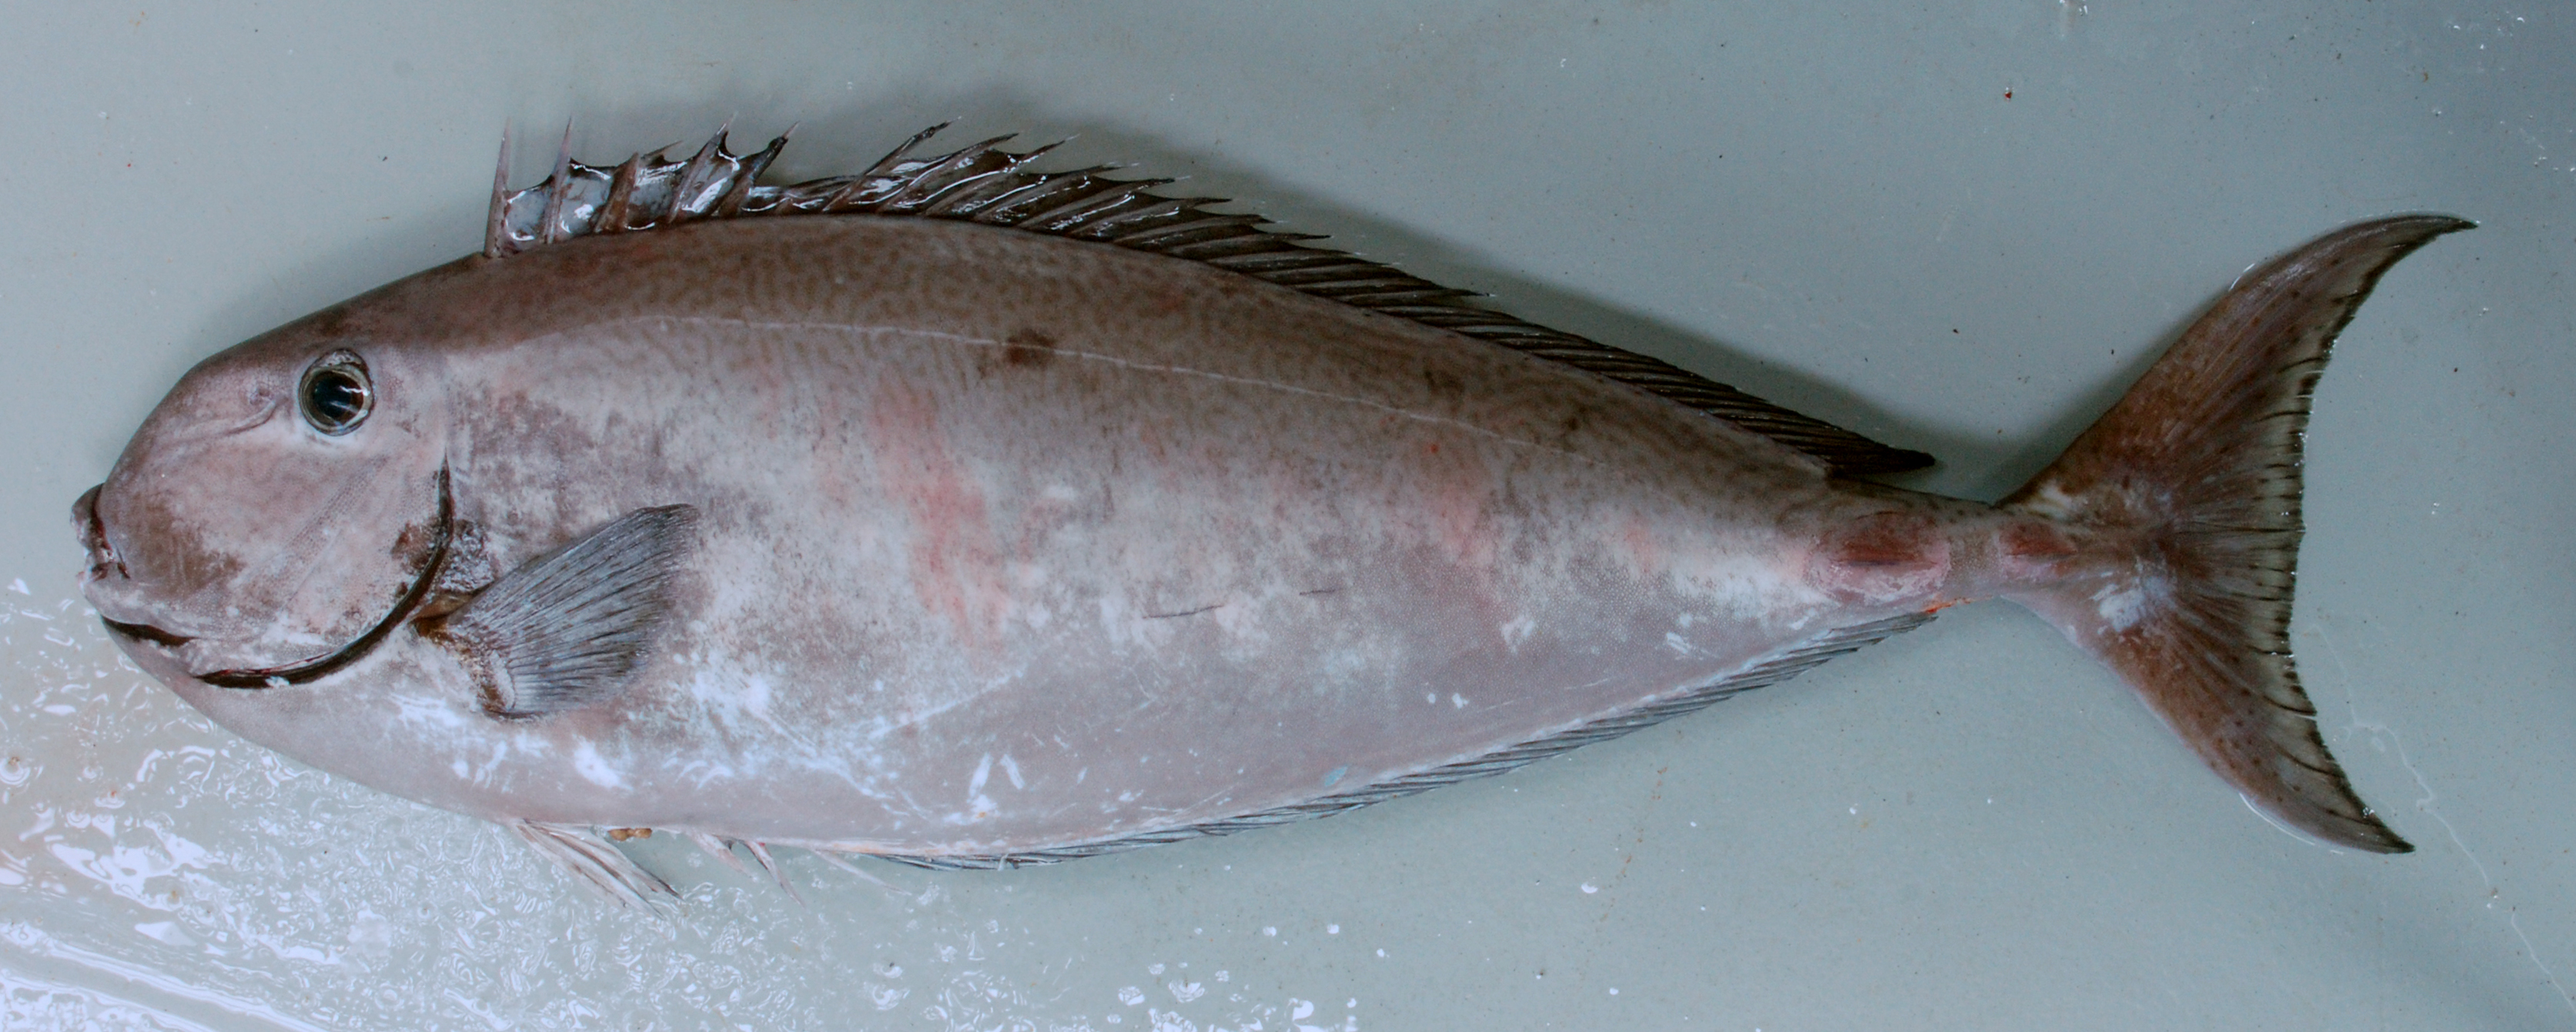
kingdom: Animalia
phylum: Chordata
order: Perciformes
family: Acanthuridae
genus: Naso
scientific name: Naso tuberosus
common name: Humpnose unicornfish
